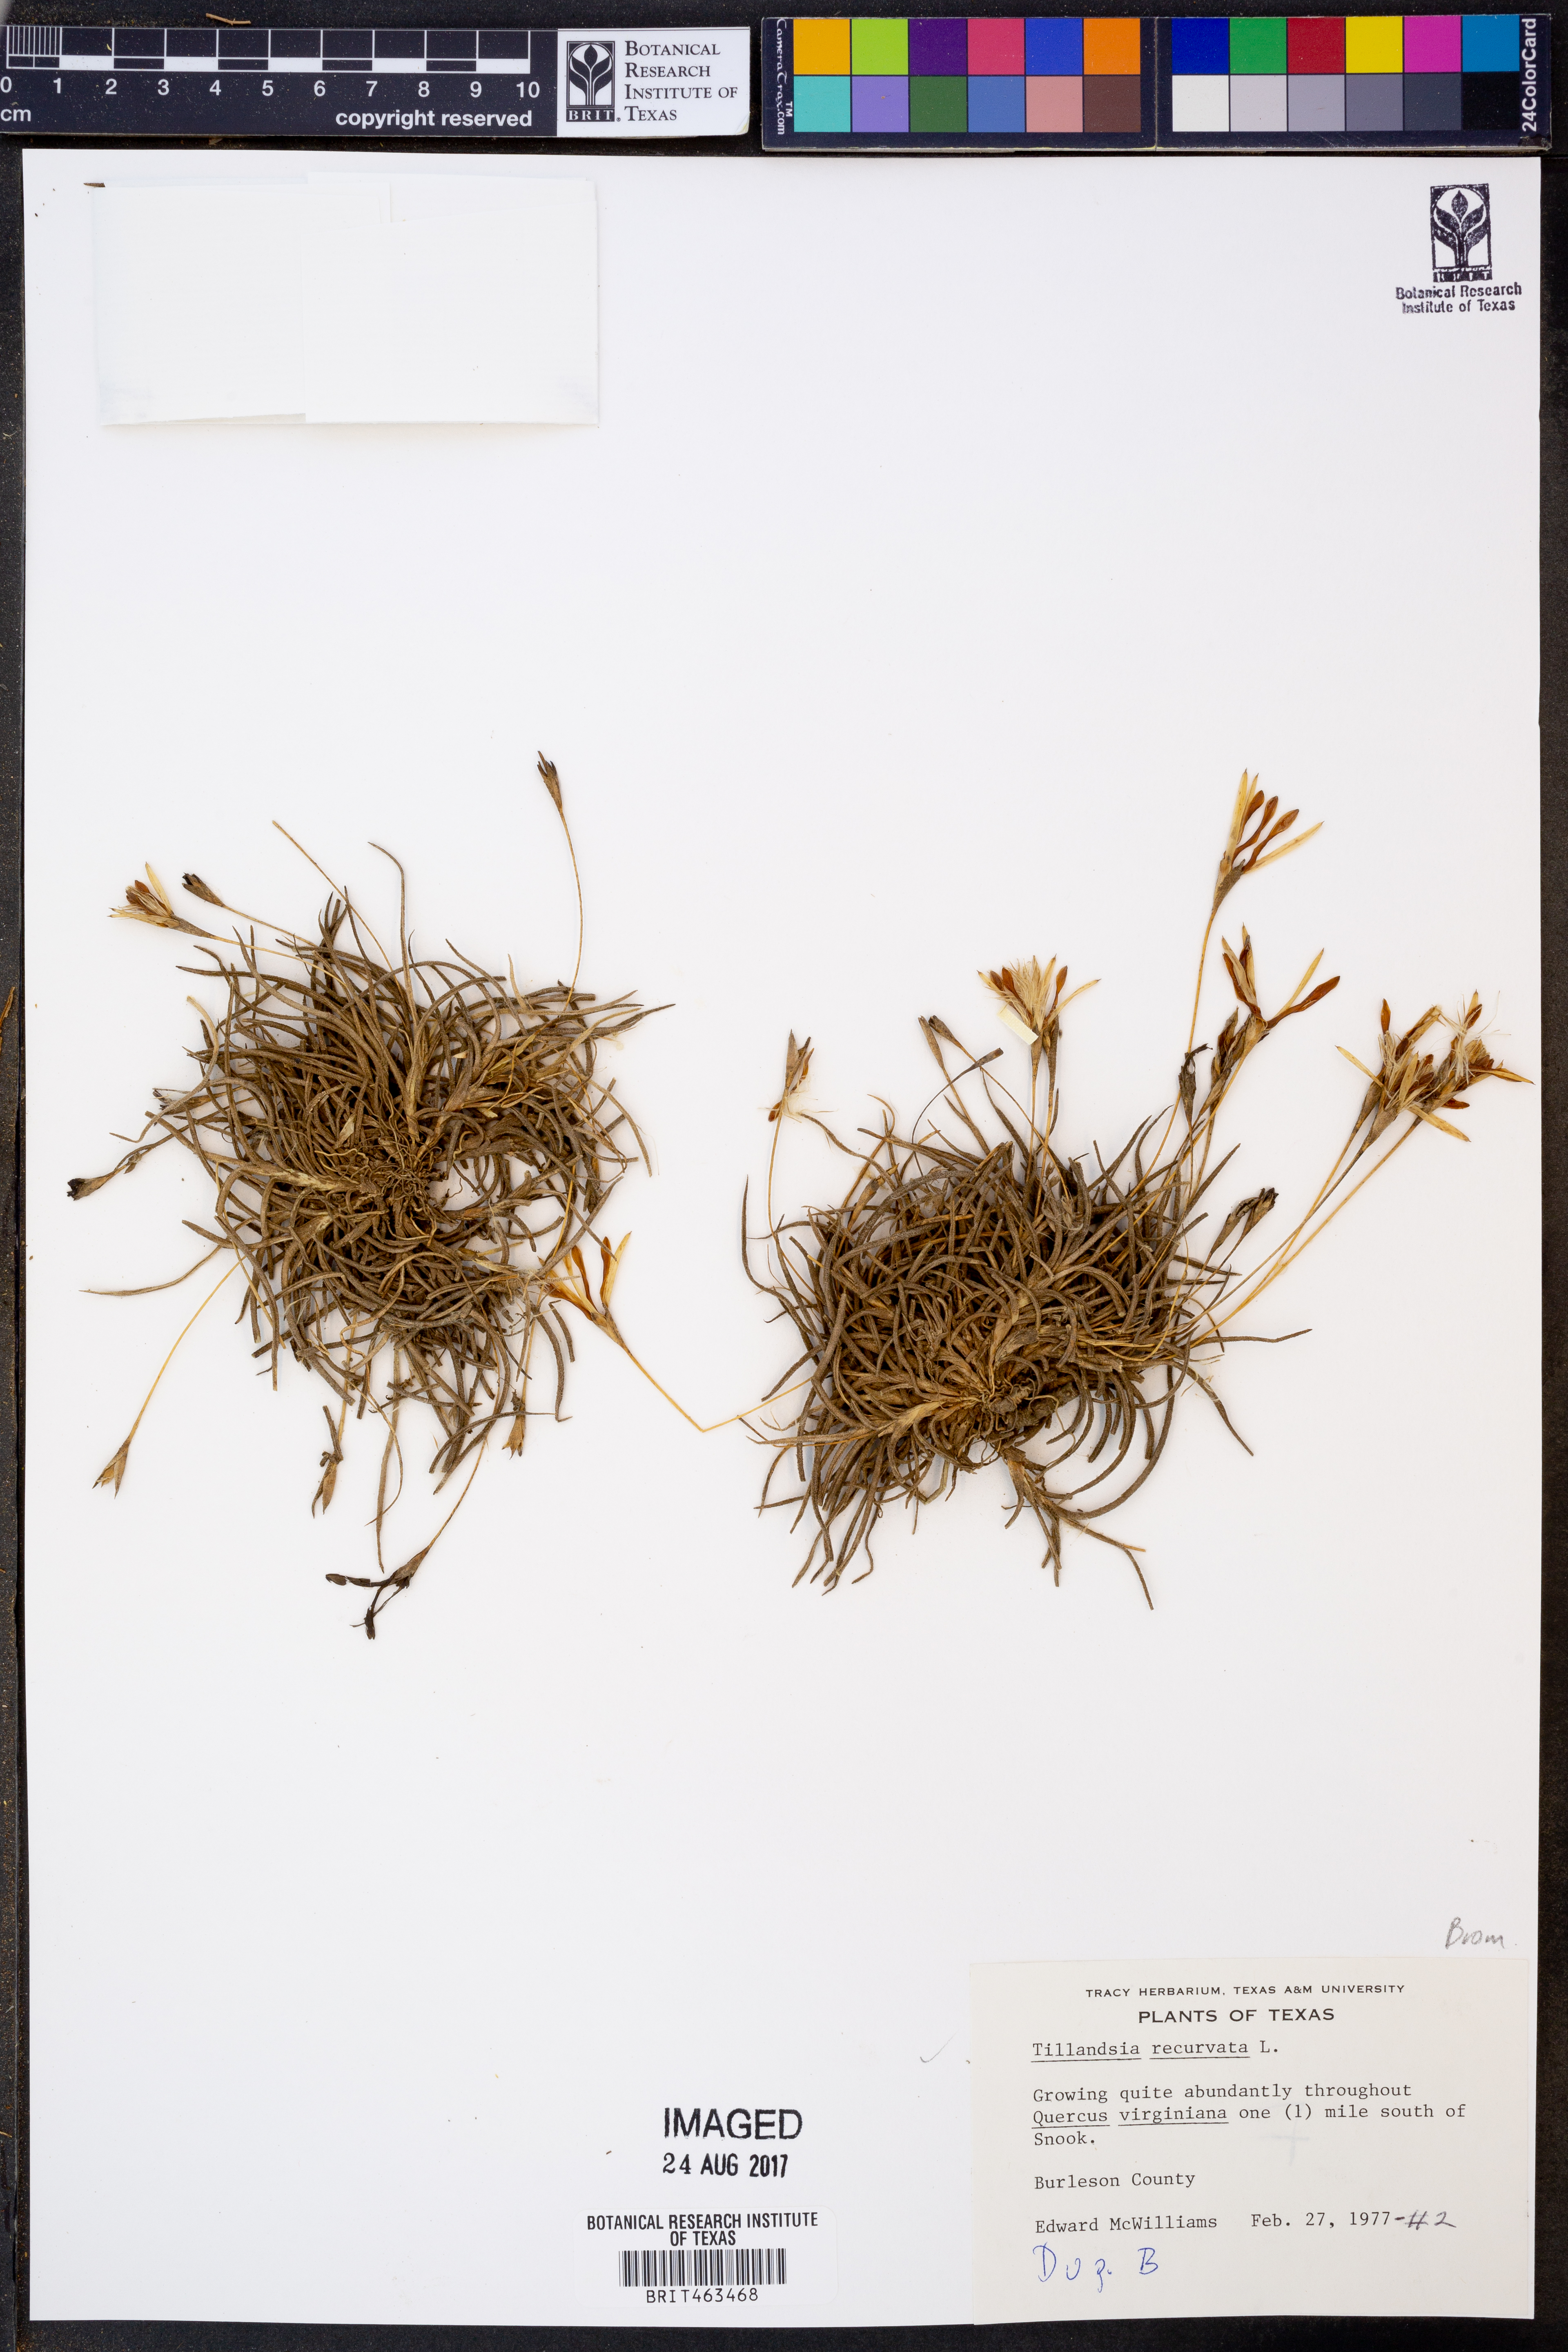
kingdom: Plantae
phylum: Tracheophyta
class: Liliopsida
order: Poales
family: Bromeliaceae
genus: Tillandsia
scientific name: Tillandsia recurvata
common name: Small ballmoss
